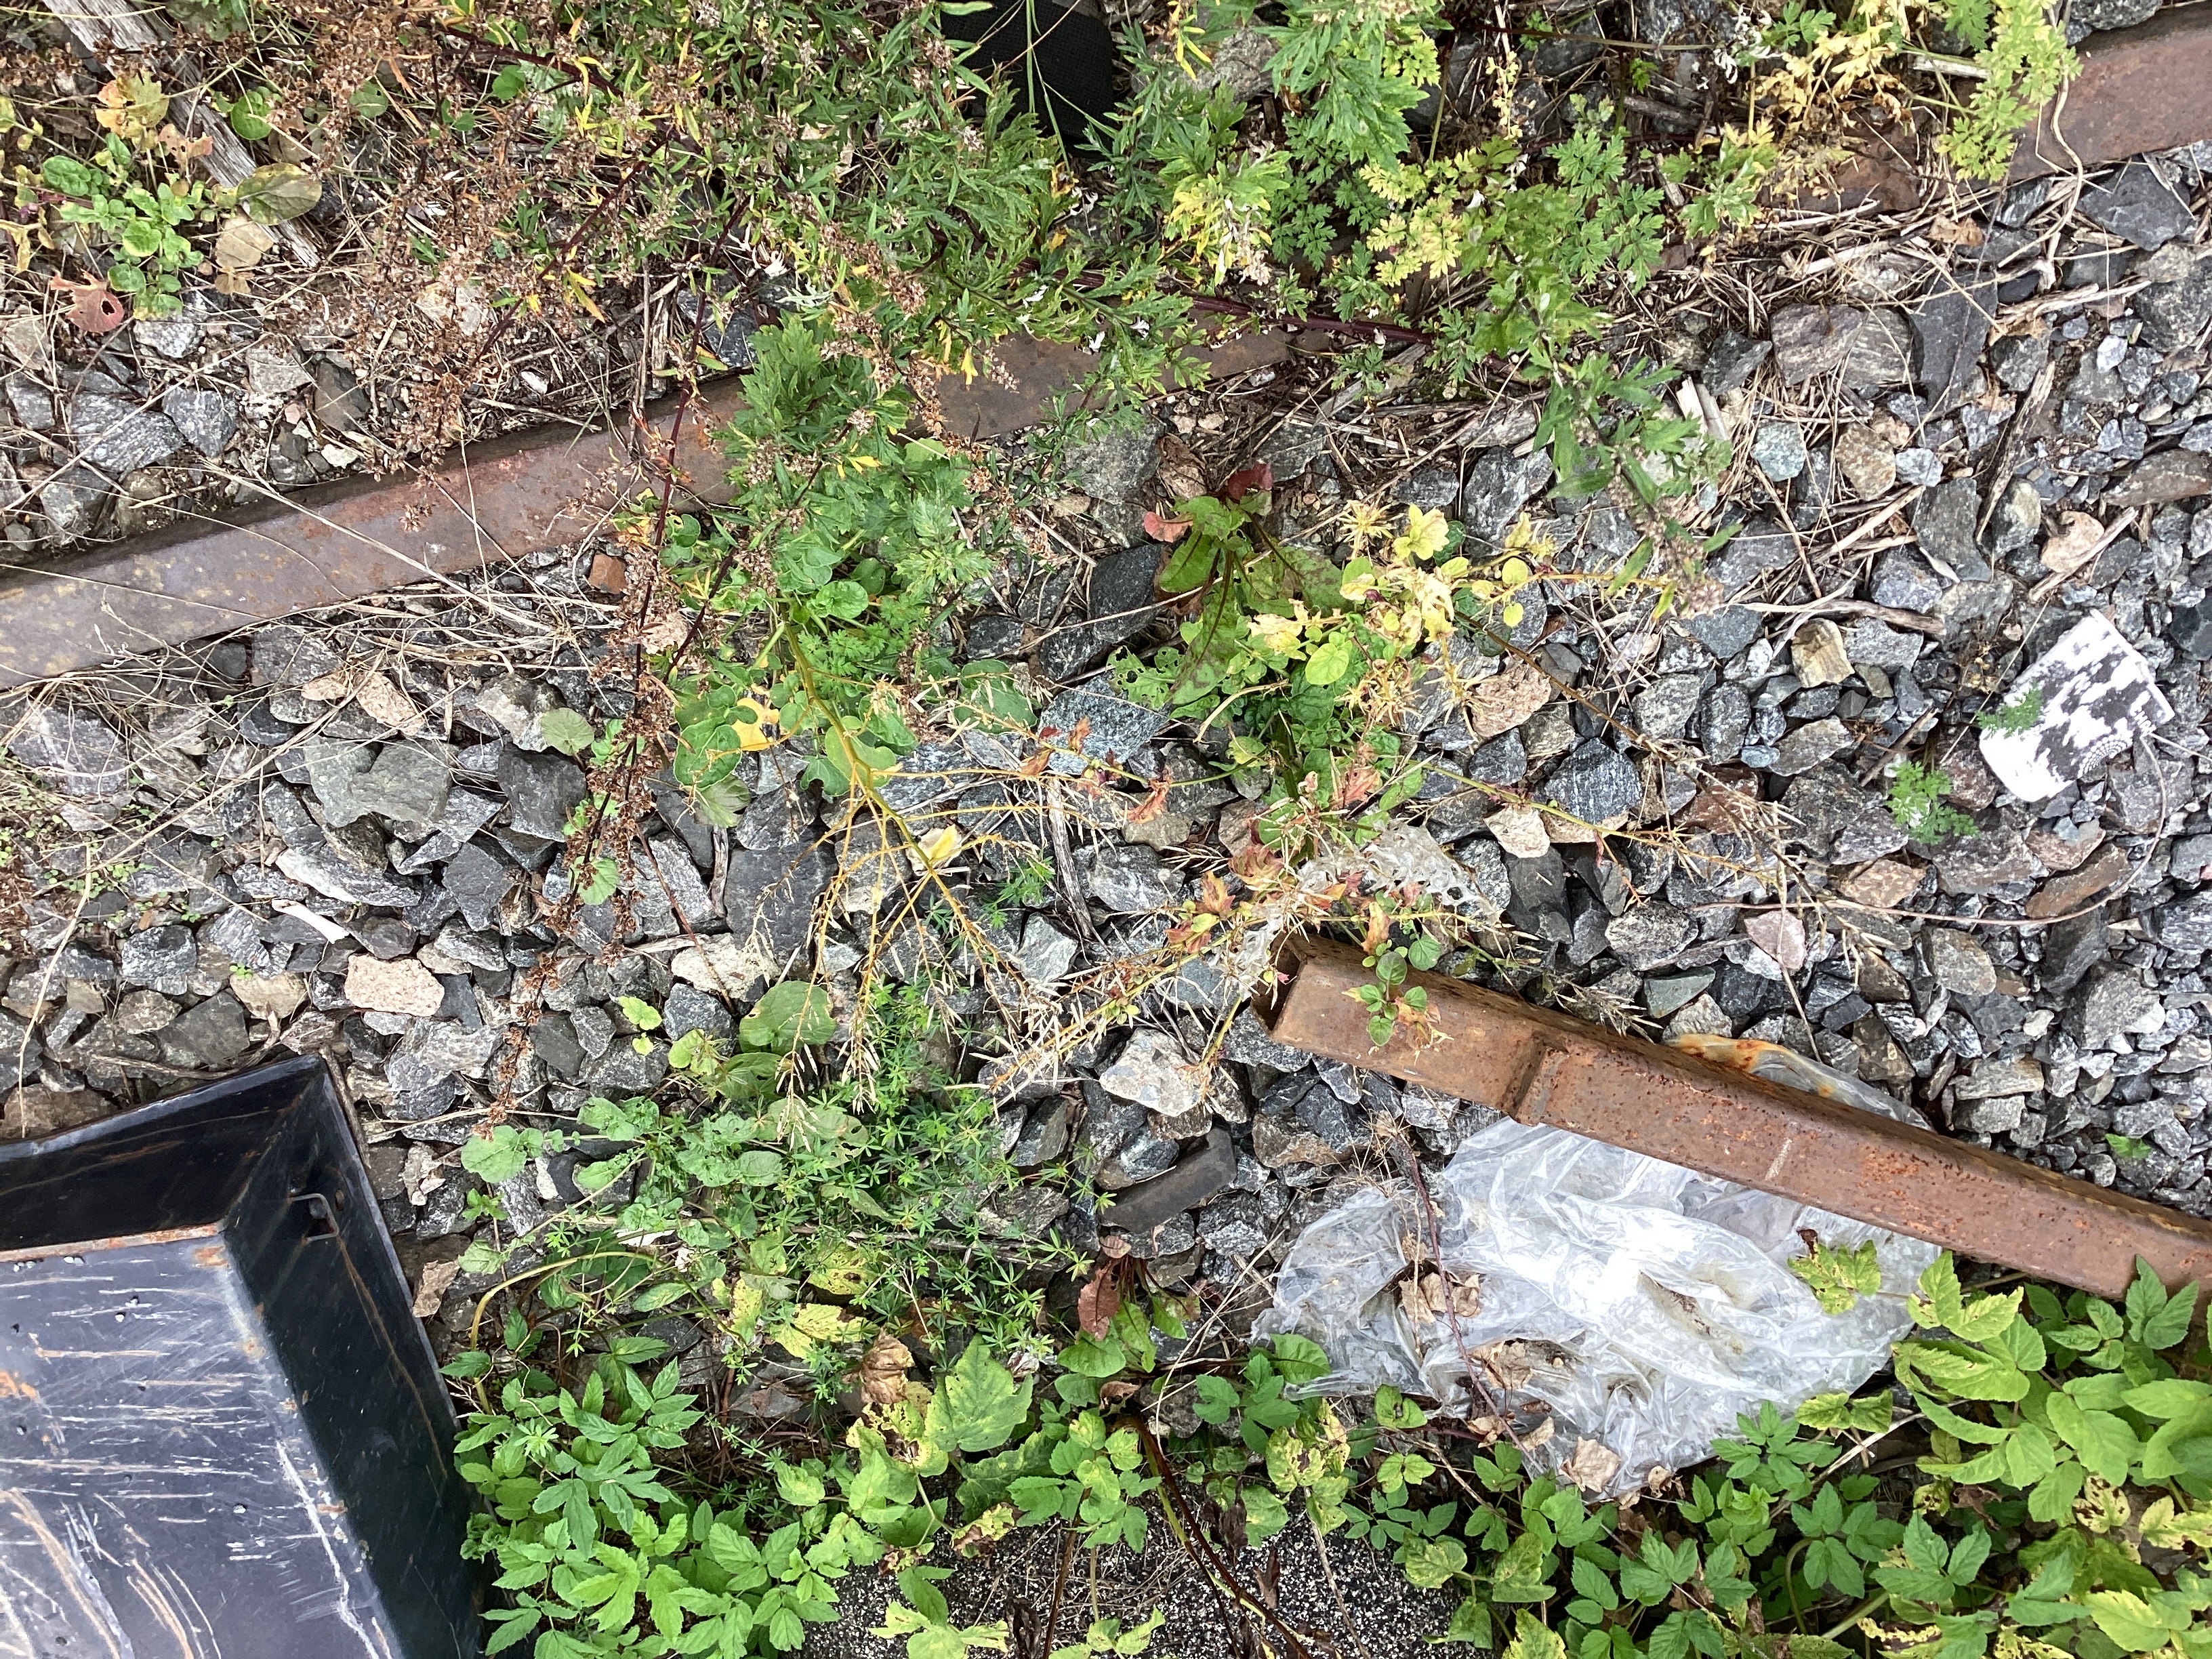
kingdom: Plantae
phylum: Tracheophyta
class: Magnoliopsida
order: Brassicales
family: Brassicaceae
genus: Barbarea
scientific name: Barbarea vulgaris
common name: vinterkarse
